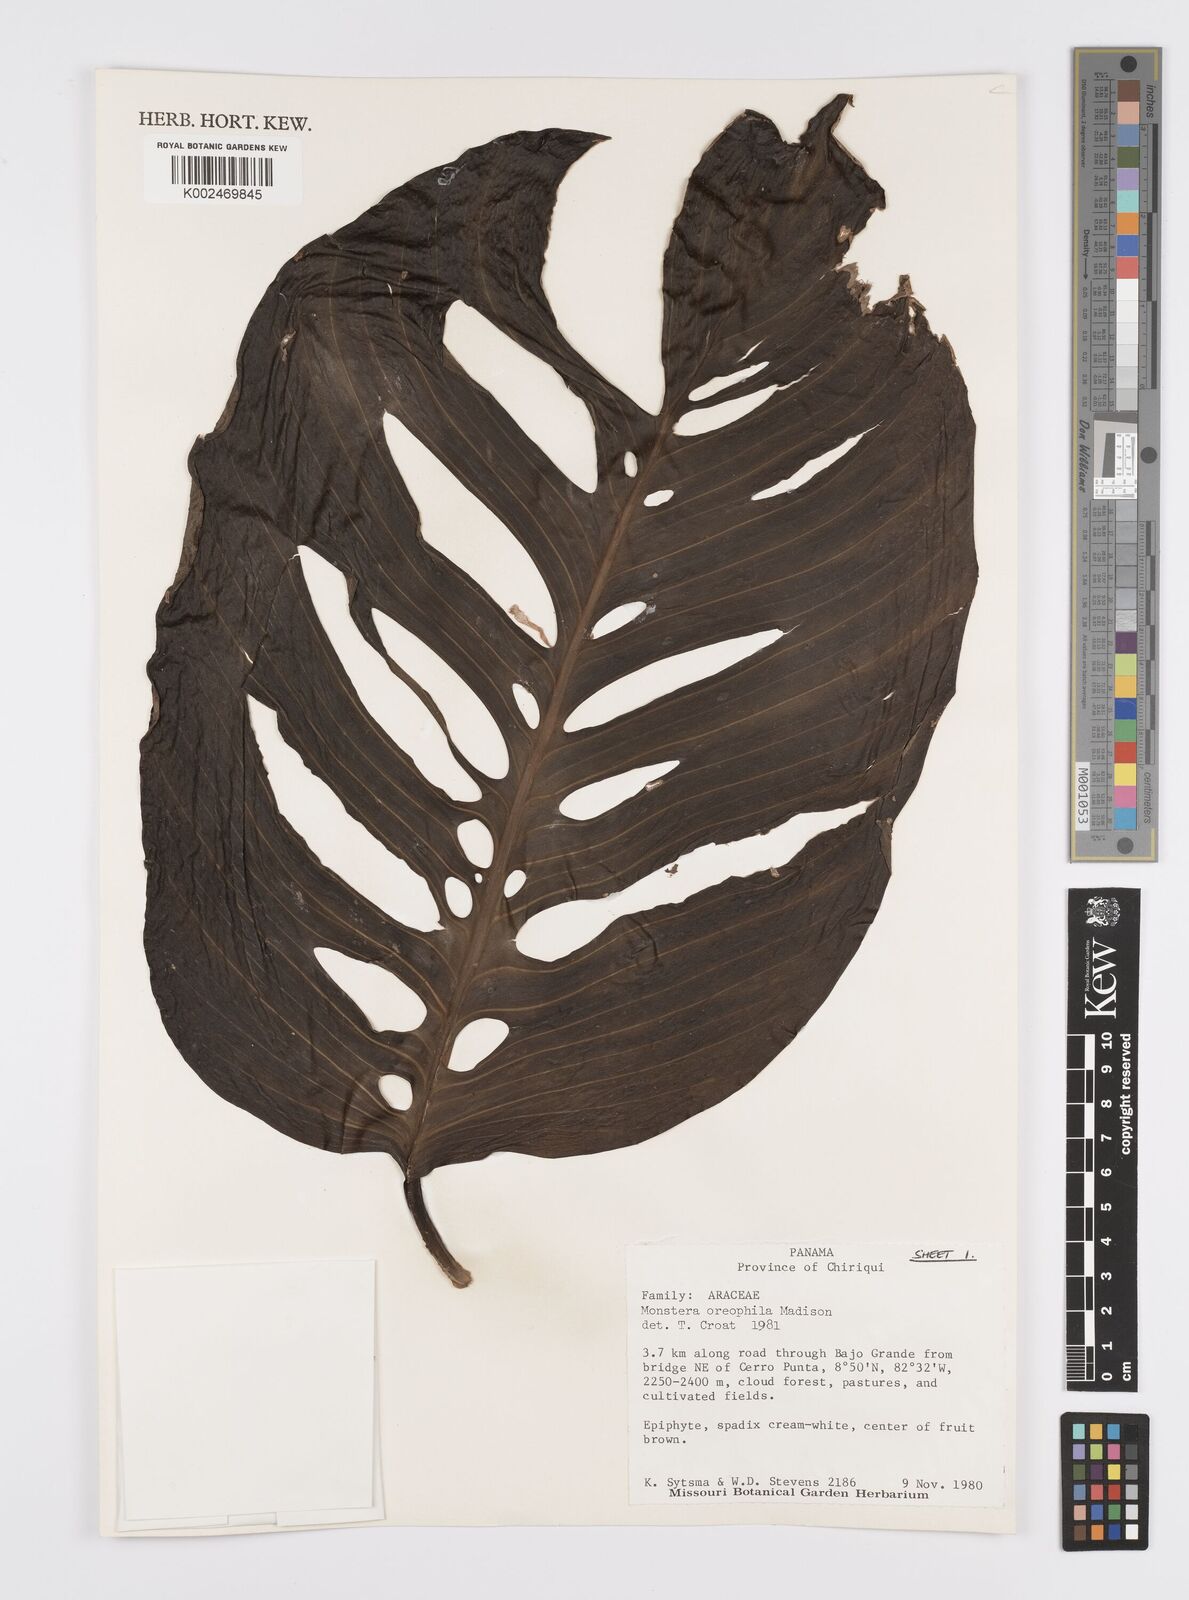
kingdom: Plantae
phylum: Tracheophyta
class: Liliopsida
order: Alismatales
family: Araceae
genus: Monstera
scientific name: Monstera oreophila
